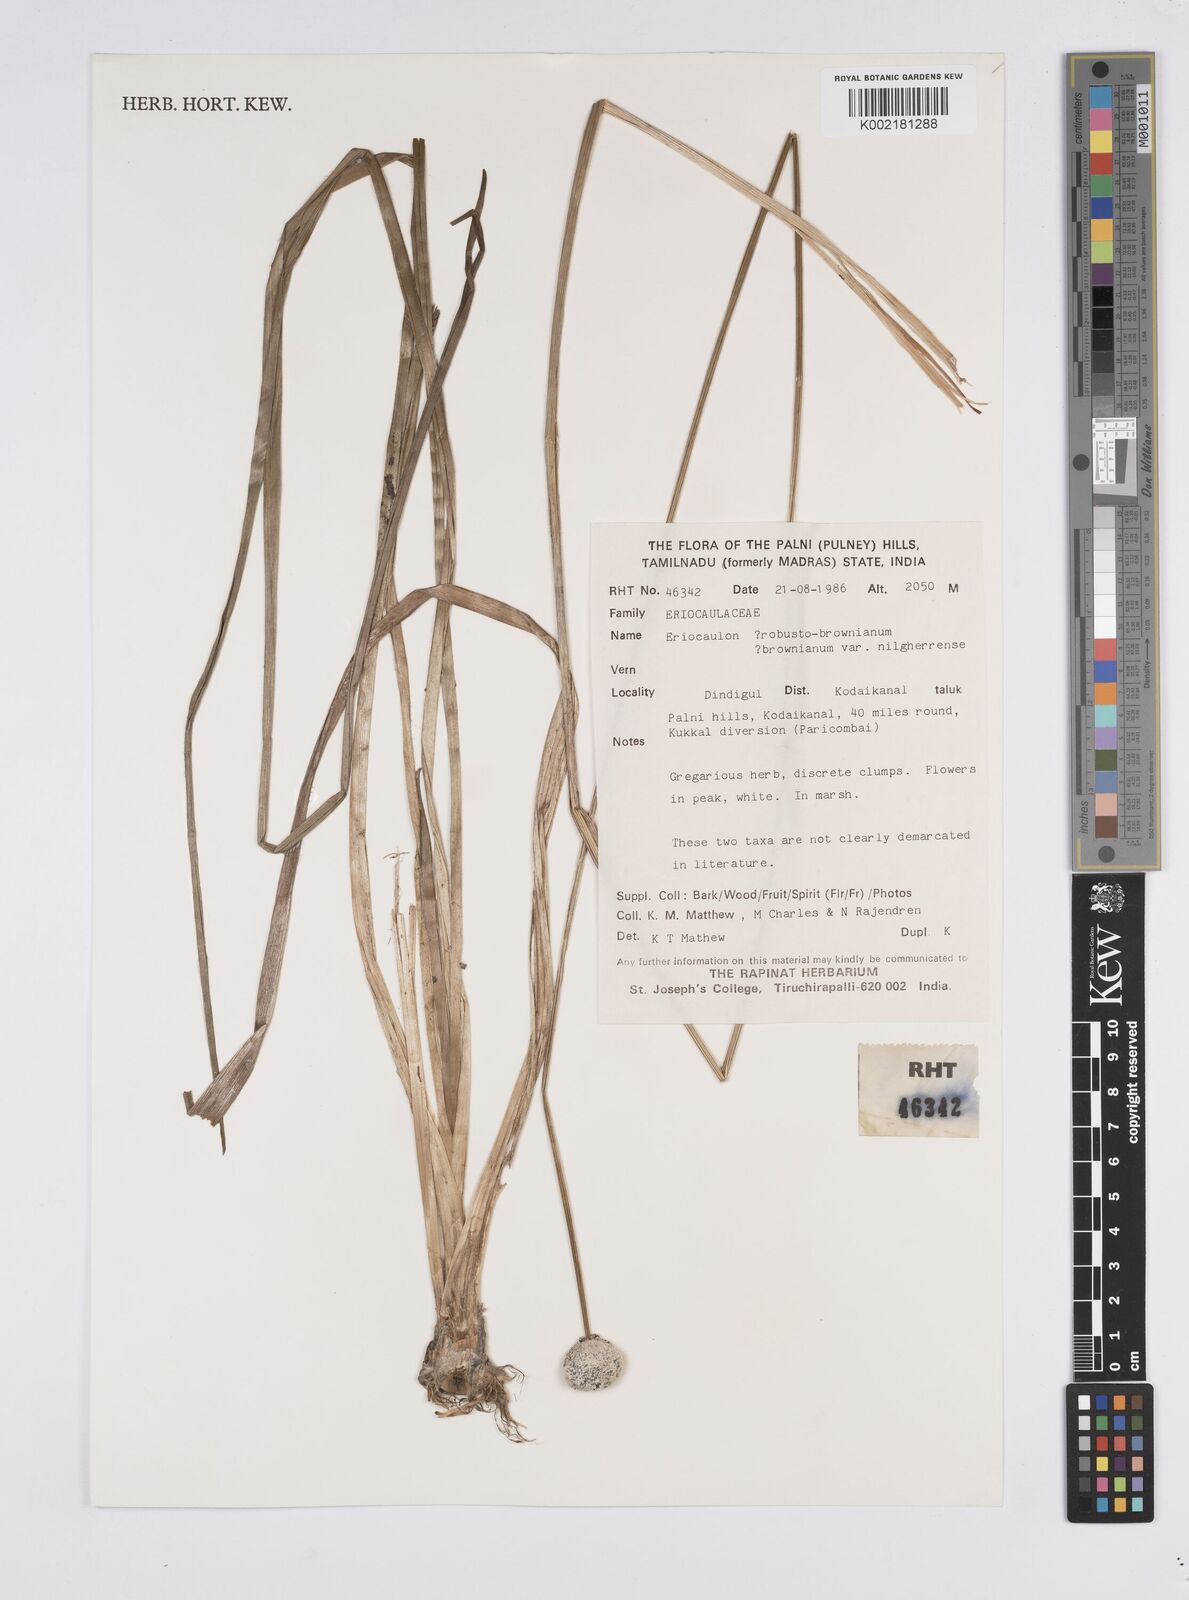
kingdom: Plantae
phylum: Tracheophyta
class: Liliopsida
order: Poales
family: Eriocaulaceae
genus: Eriocaulon
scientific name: Eriocaulon brownianum
